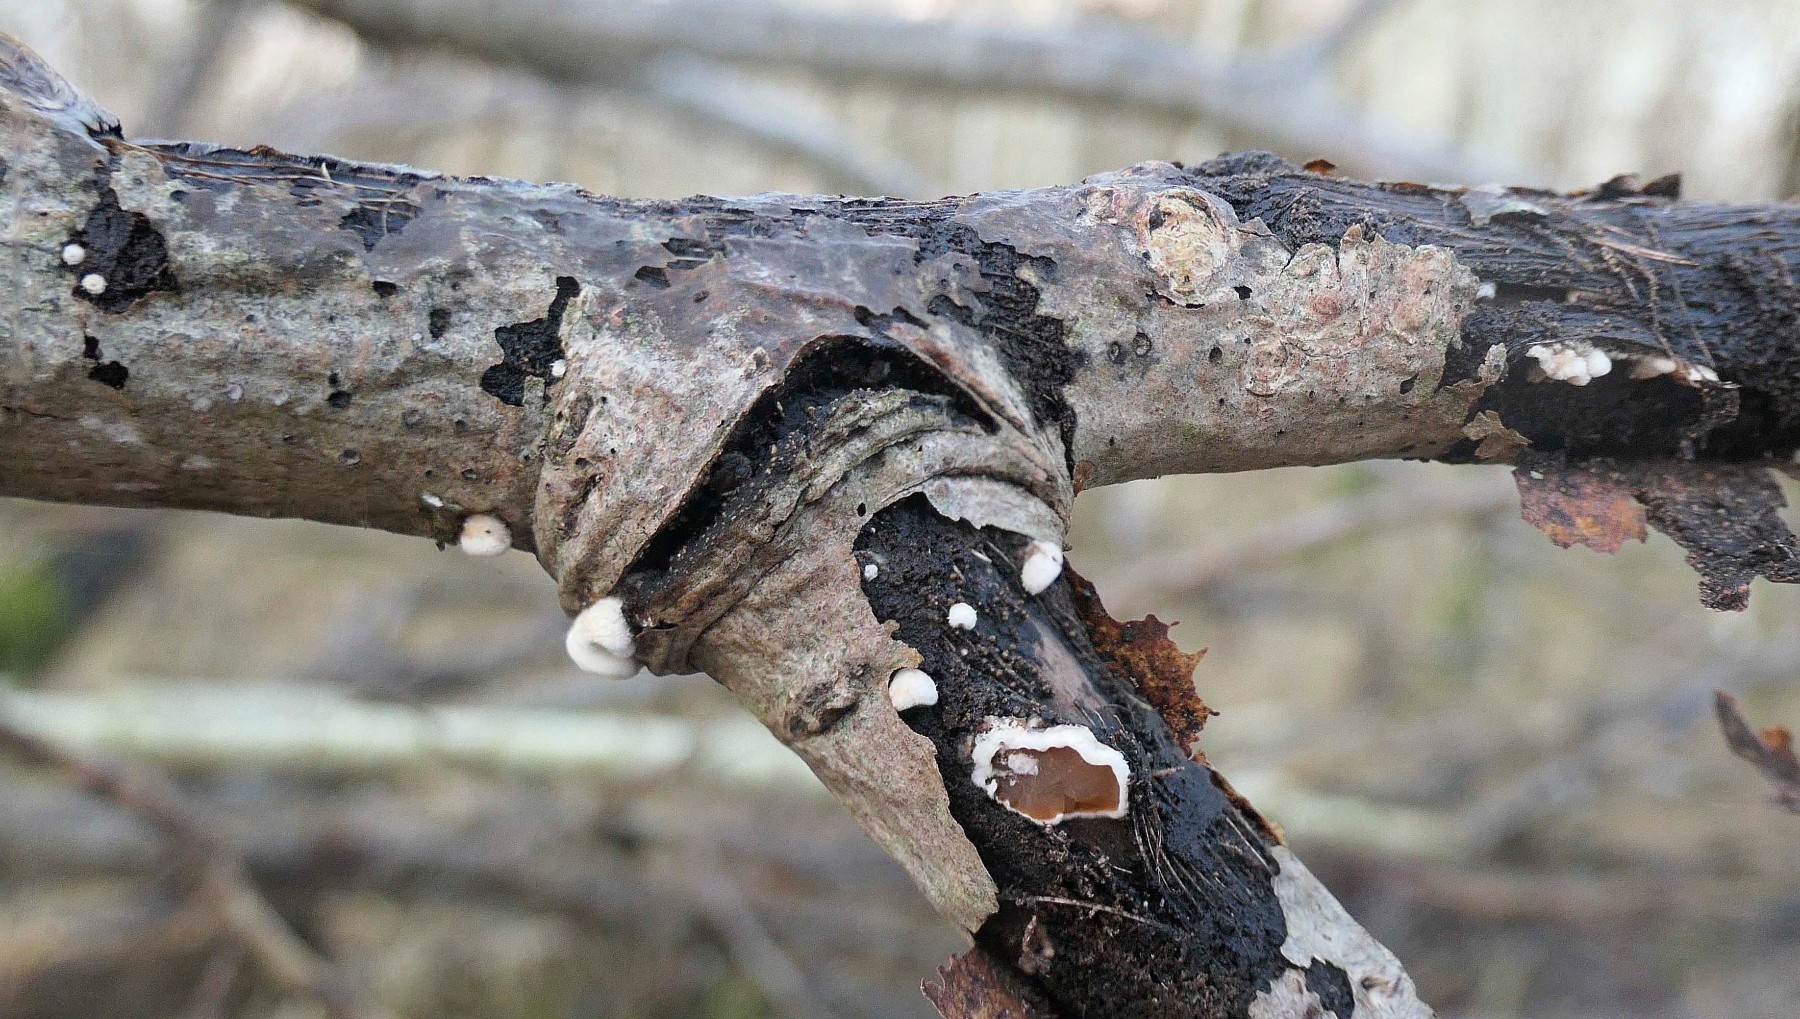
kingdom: Fungi
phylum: Basidiomycota
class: Agaricomycetes
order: Agaricales
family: Schizophyllaceae
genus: Schizophyllum
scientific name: Schizophyllum amplum
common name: poppel-hængeøre
